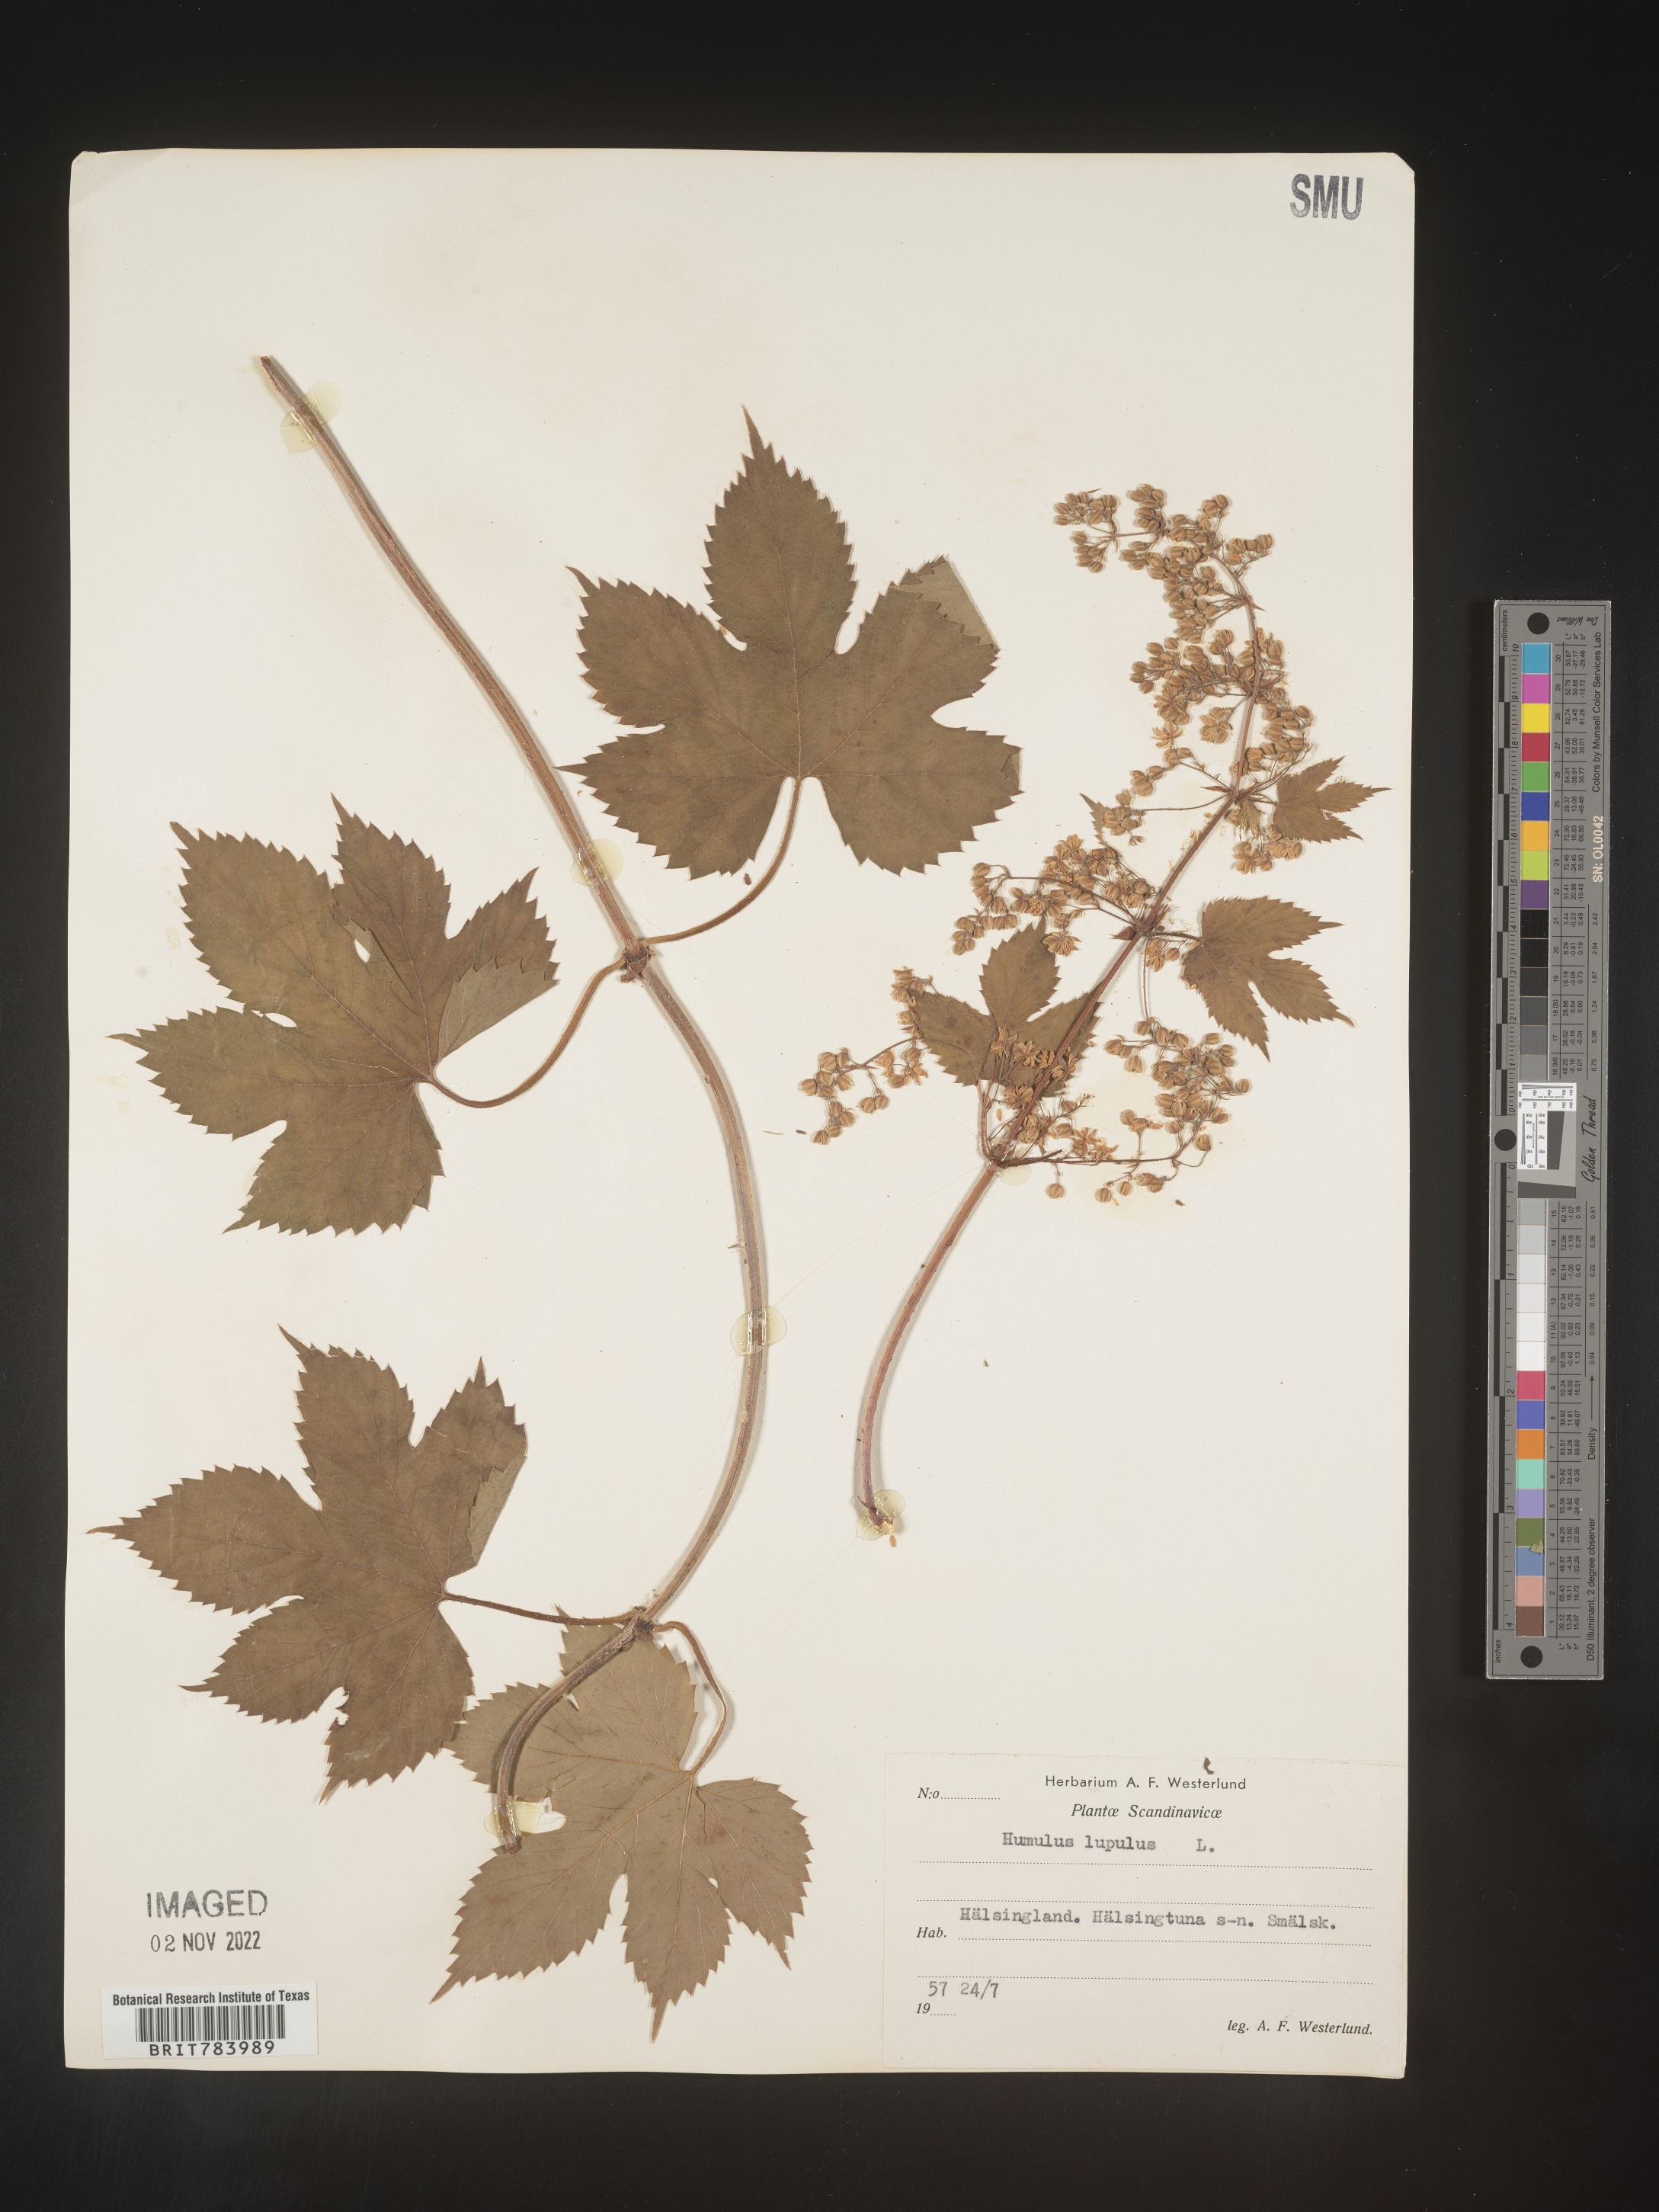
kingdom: Plantae
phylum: Tracheophyta
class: Magnoliopsida
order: Rosales
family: Cannabaceae
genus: Humulus
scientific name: Humulus
